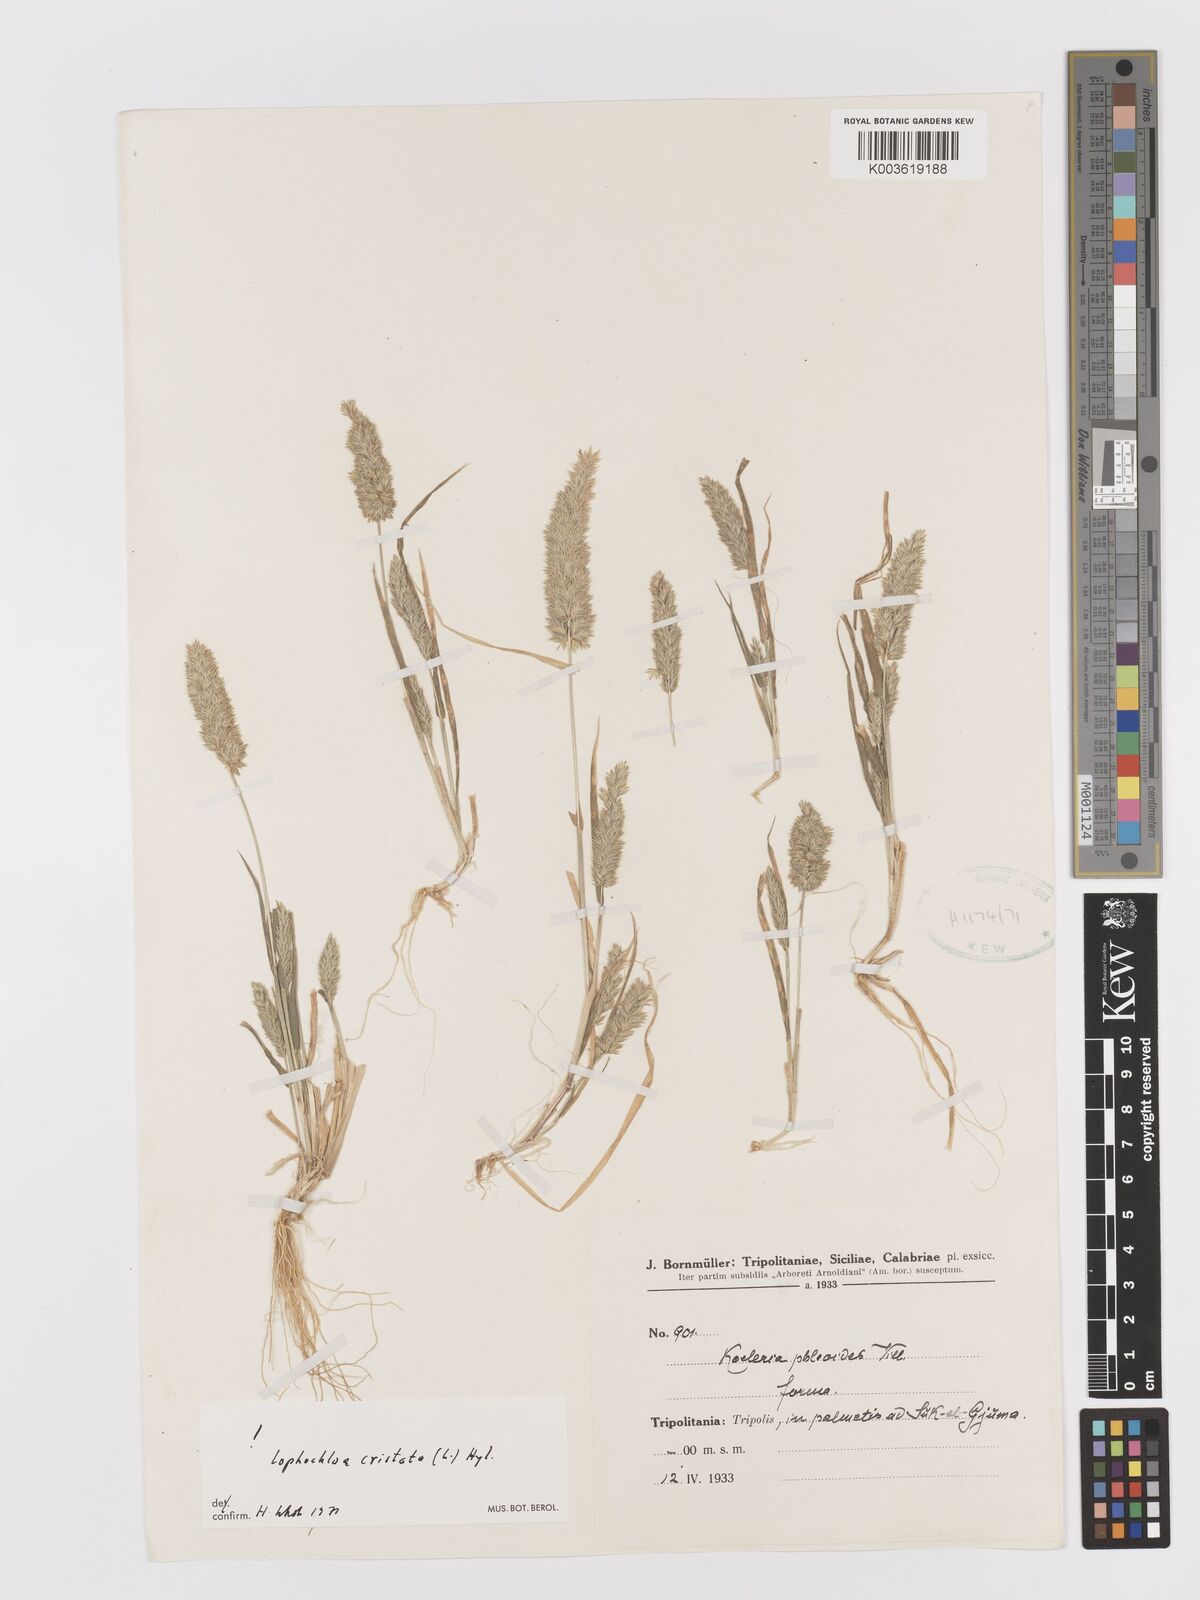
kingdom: Plantae
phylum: Tracheophyta
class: Liliopsida
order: Poales
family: Poaceae
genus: Rostraria
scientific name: Rostraria cristata
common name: Mediterranean hair-grass
